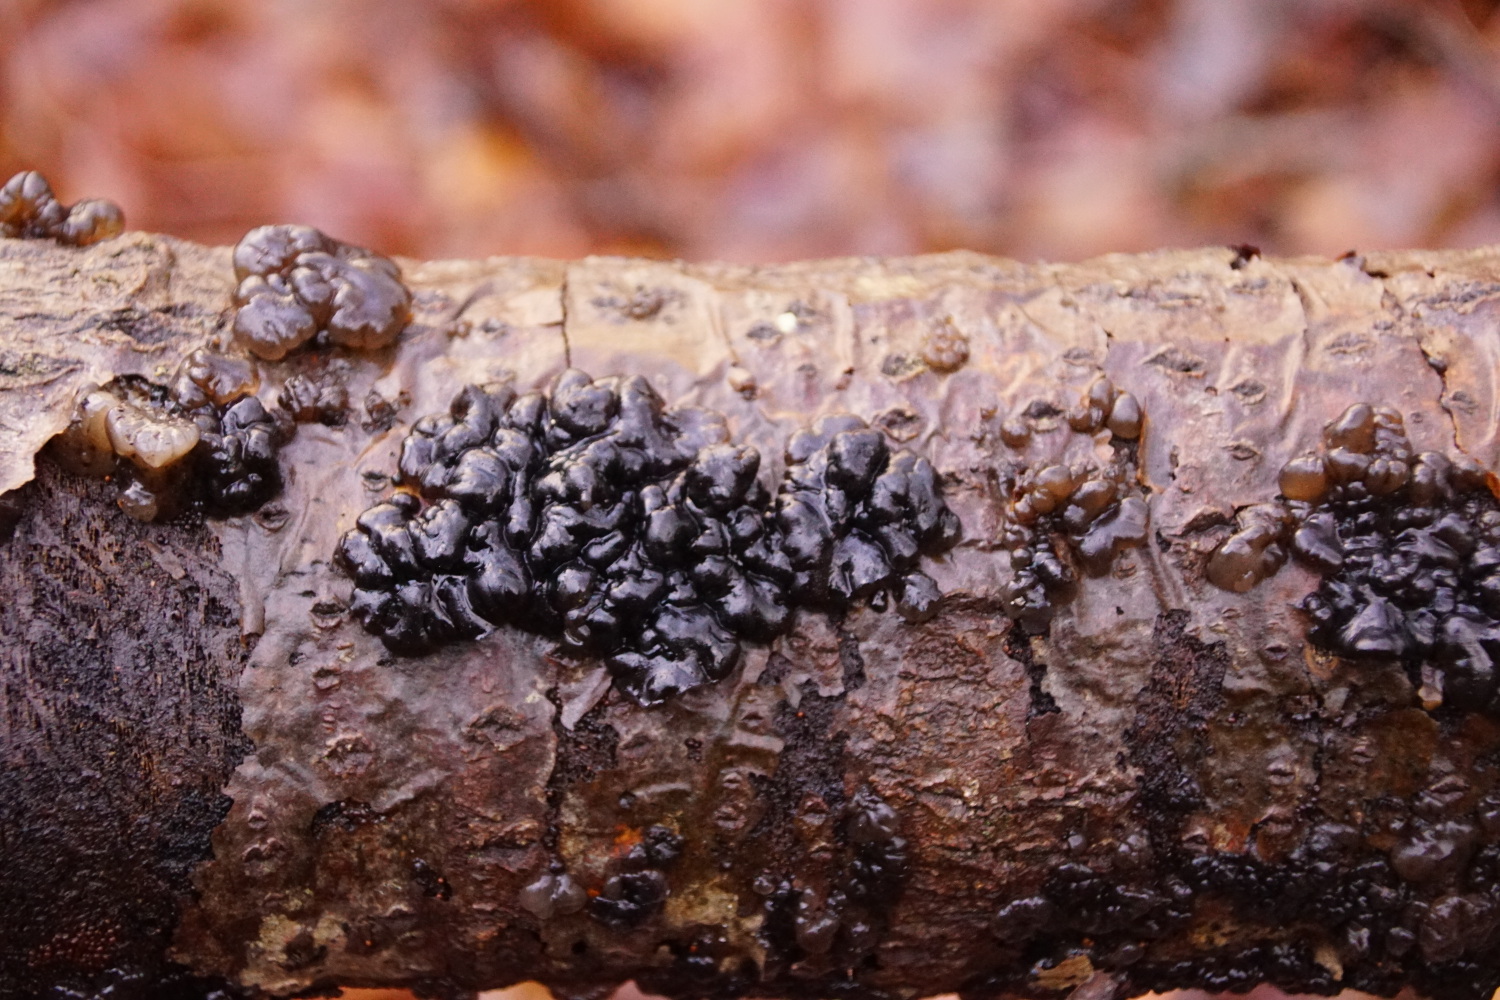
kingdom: Fungi
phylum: Basidiomycota
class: Agaricomycetes
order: Auriculariales
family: Auriculariaceae
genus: Exidia
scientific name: Exidia nigricans
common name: almindelig bævretop
